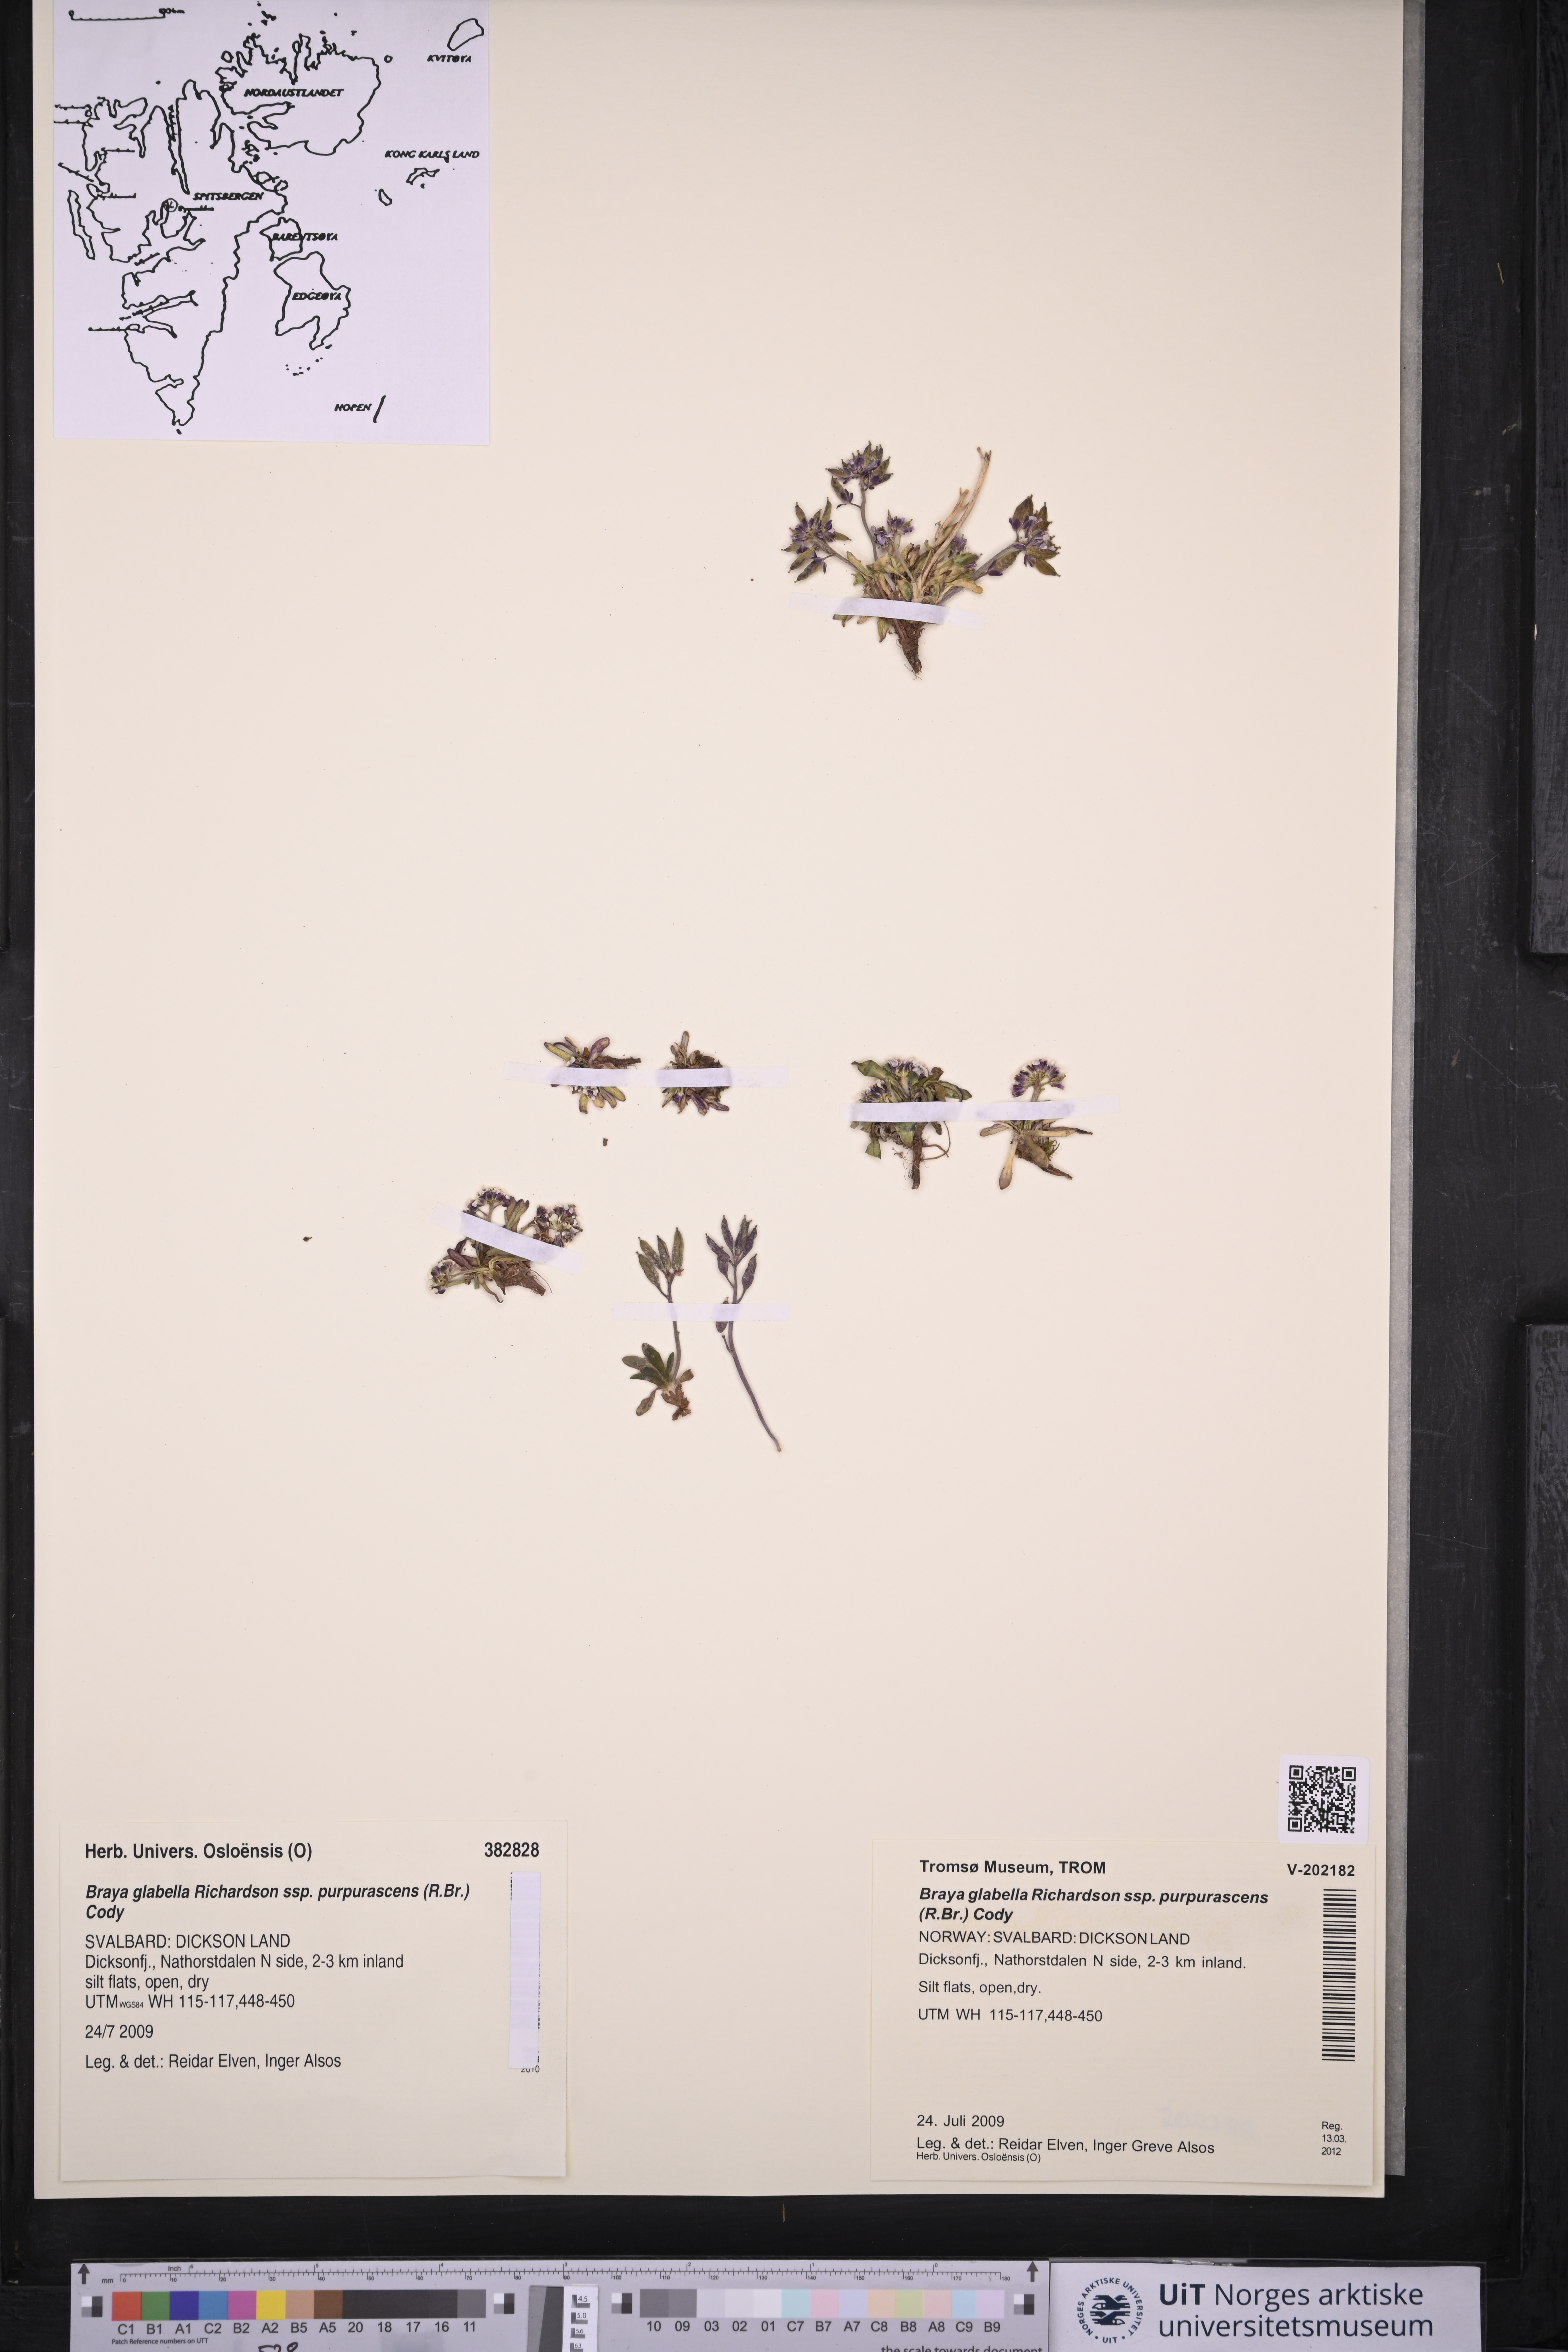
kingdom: Plantae
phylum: Tracheophyta
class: Magnoliopsida
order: Brassicales
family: Brassicaceae
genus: Braya
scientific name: Braya purpurascens
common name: Alpine braya
